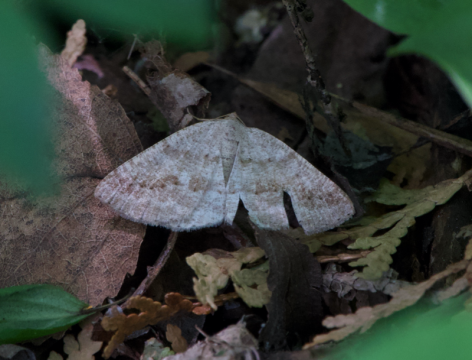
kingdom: Animalia
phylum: Arthropoda
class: Insecta
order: Lepidoptera
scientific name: Lepidoptera
